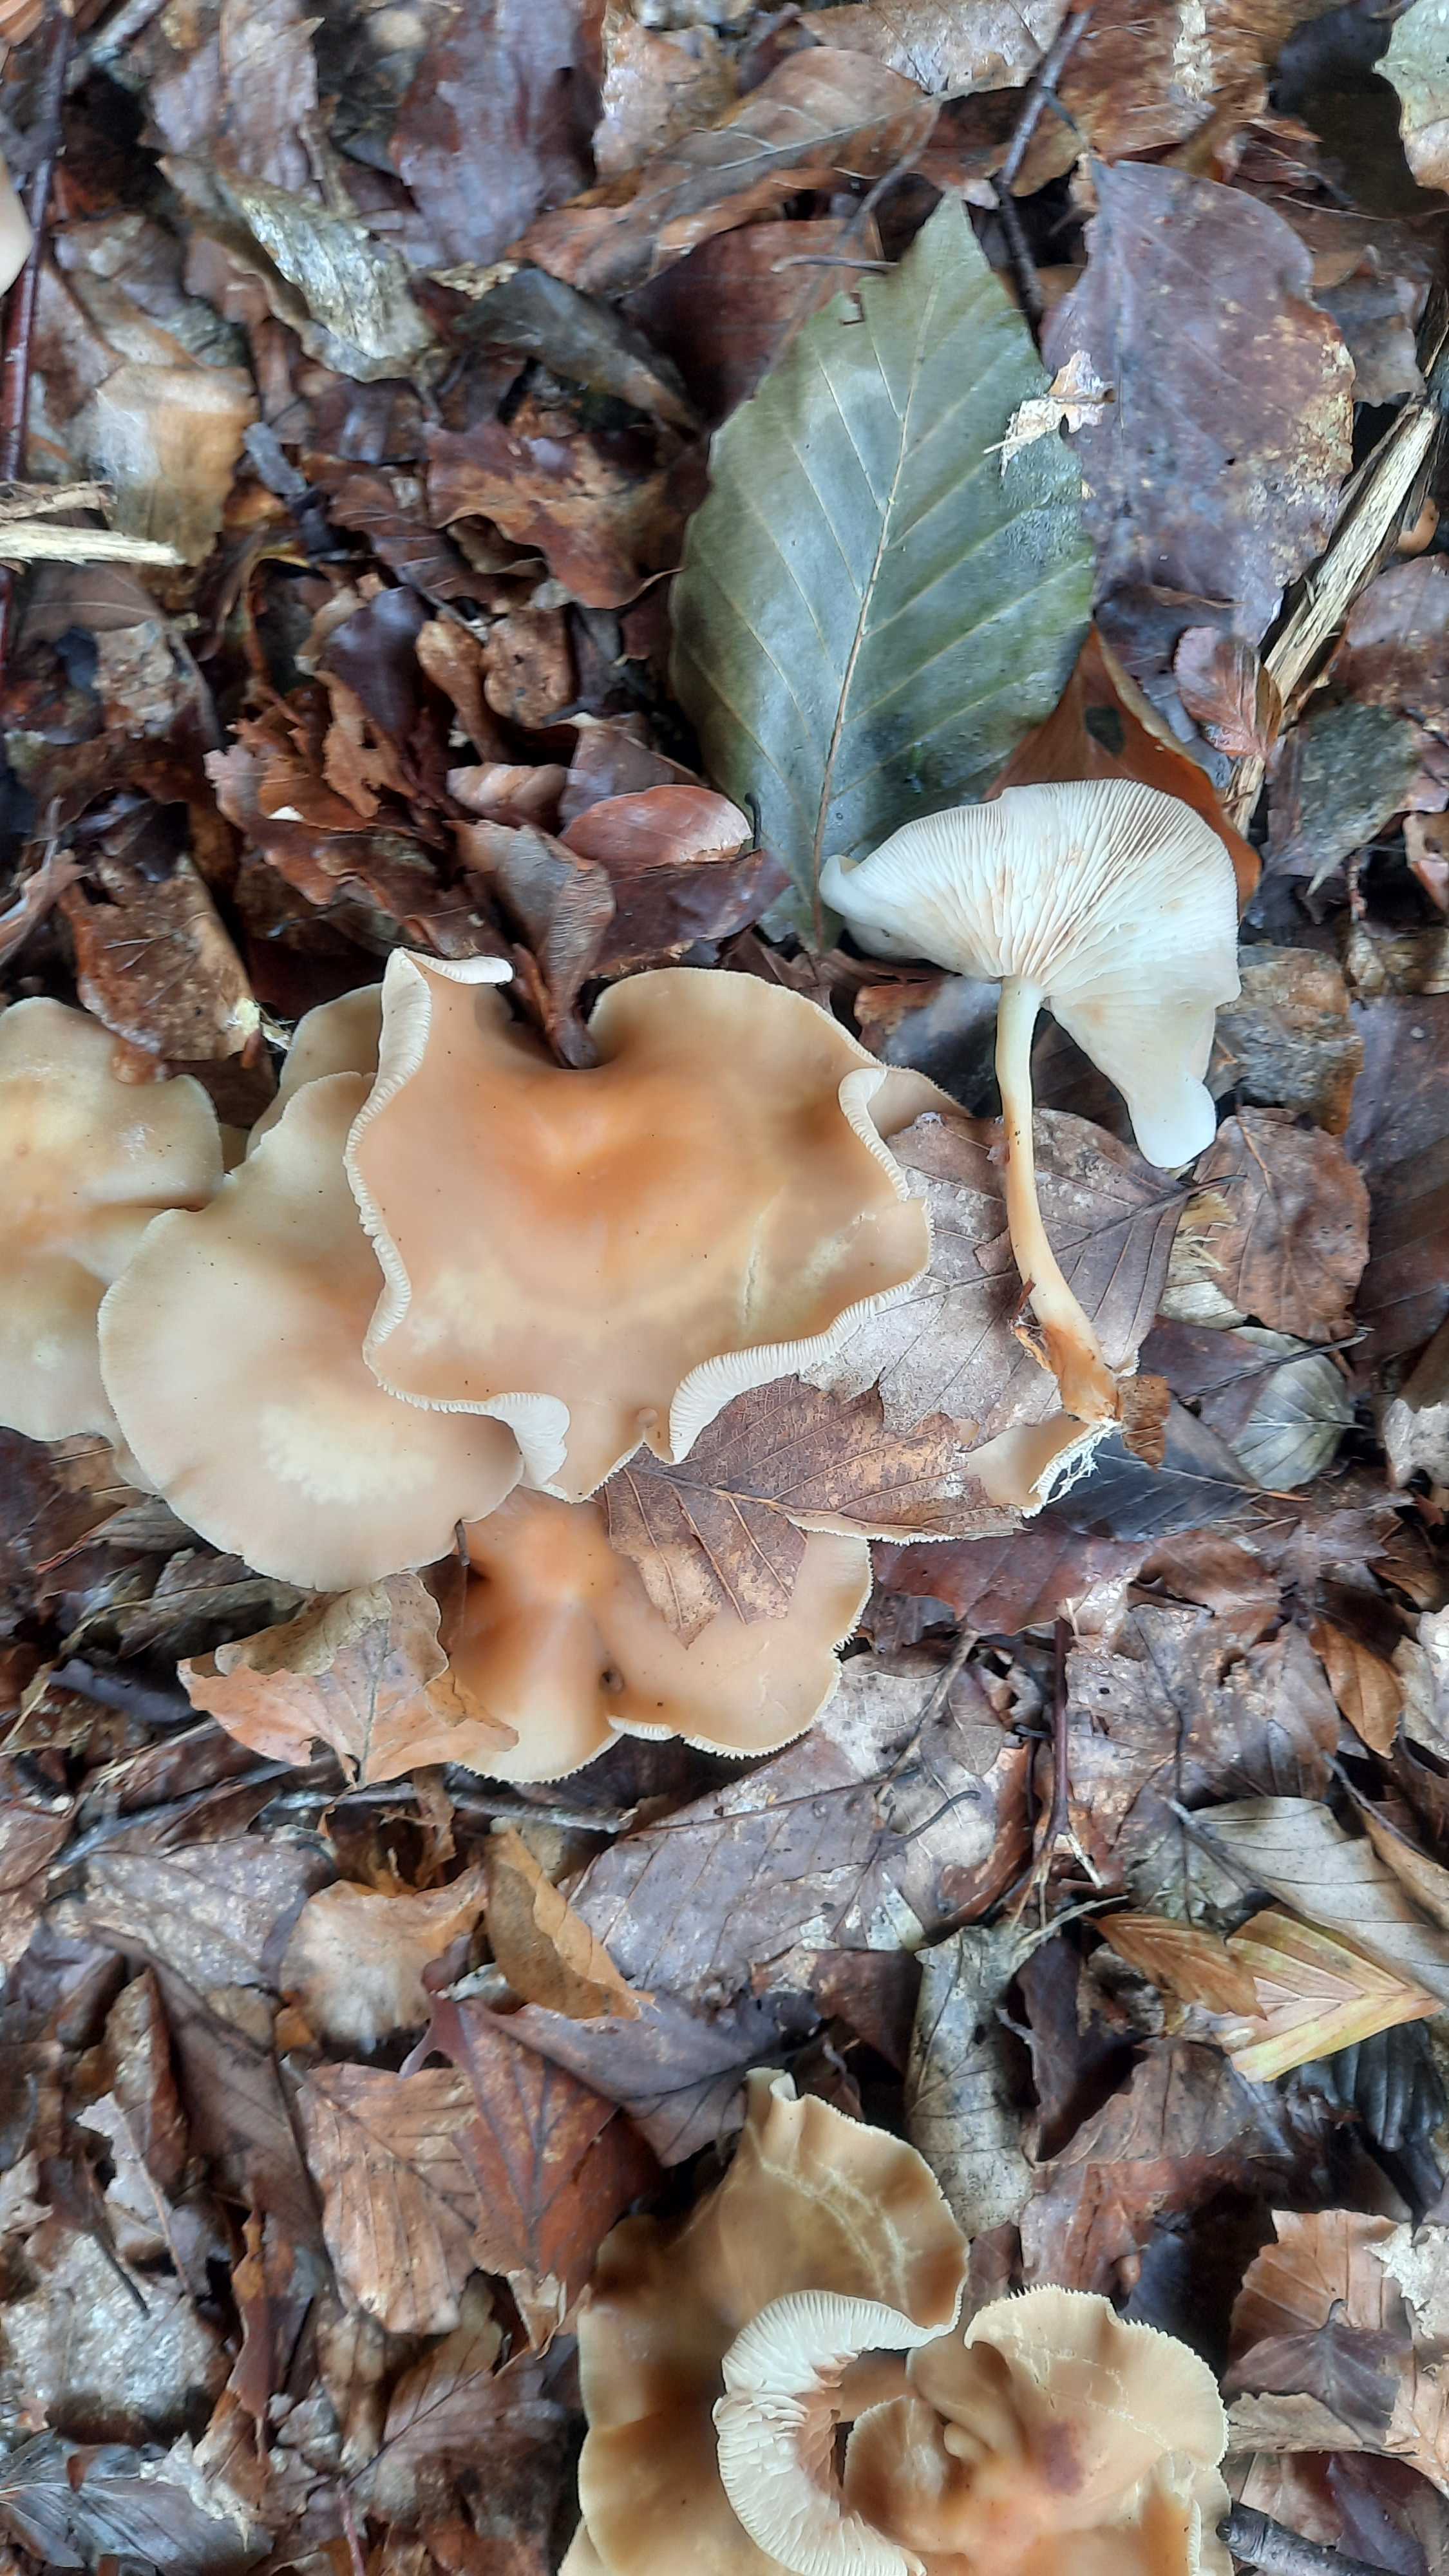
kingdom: Fungi
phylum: Basidiomycota
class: Agaricomycetes
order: Agaricales
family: Omphalotaceae
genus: Gymnopus
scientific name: Gymnopus dryophilus
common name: løv-fladhat
